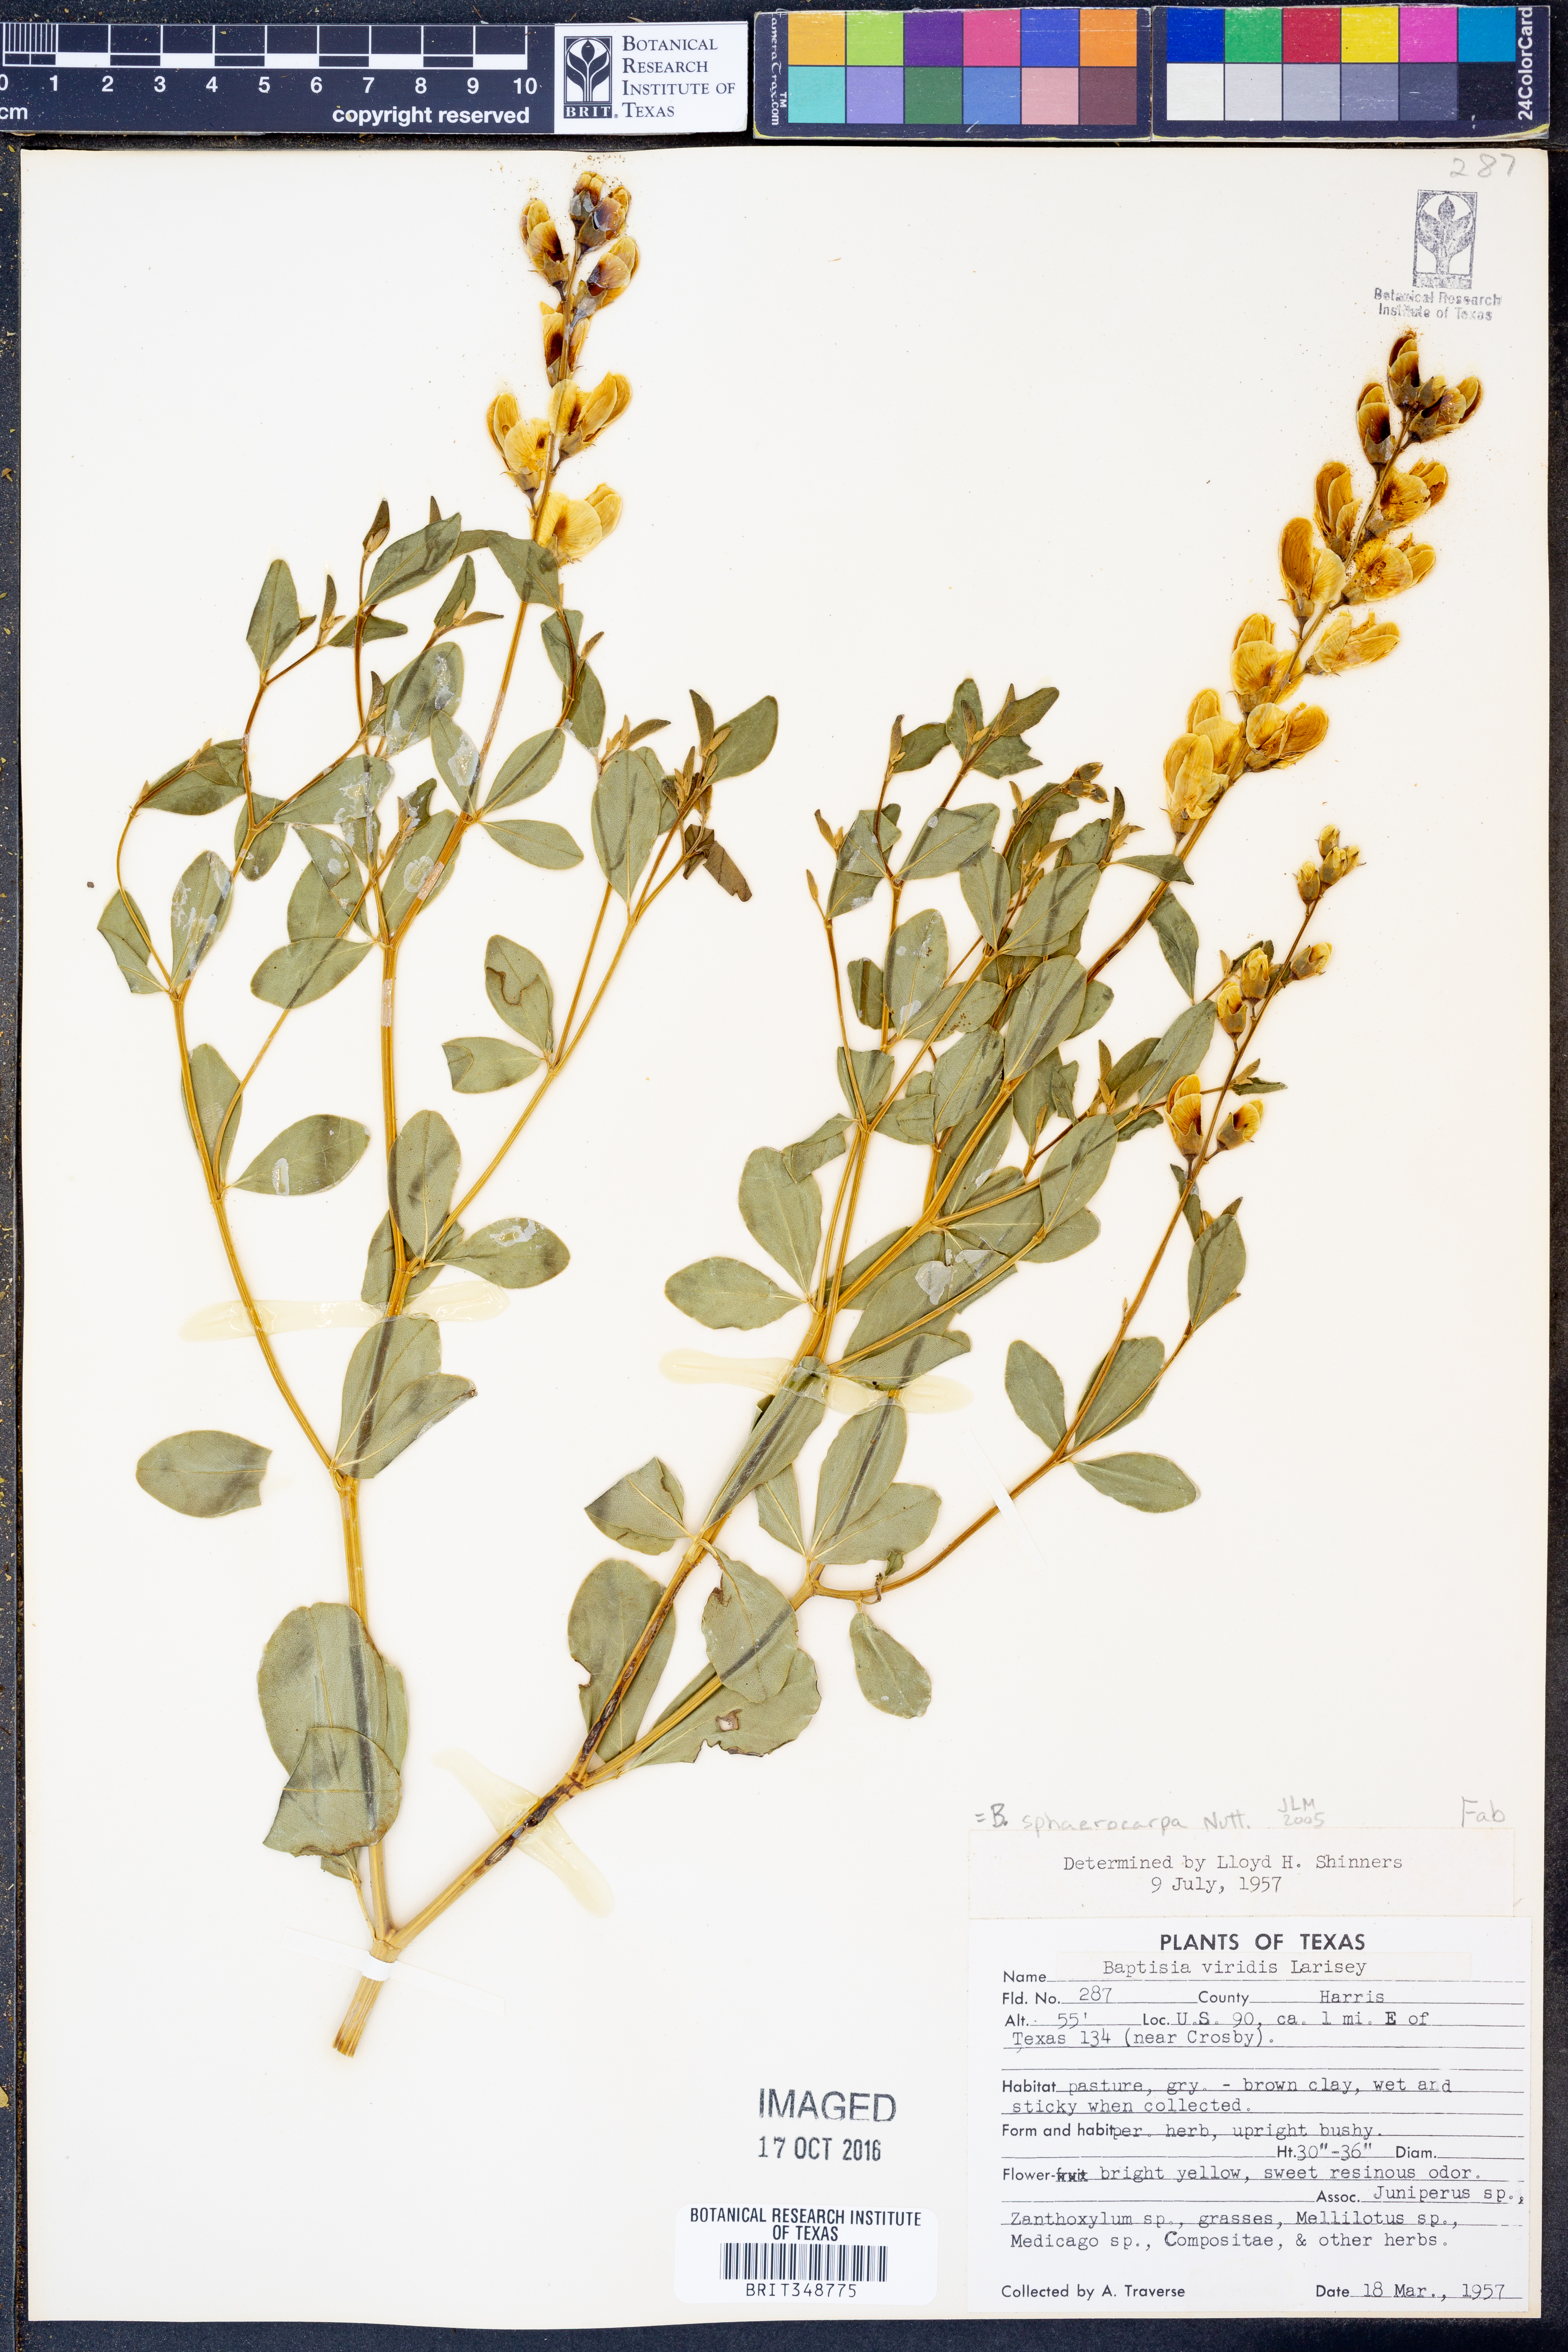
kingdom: Plantae
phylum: Tracheophyta
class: Magnoliopsida
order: Fabales
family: Fabaceae
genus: Baptisia
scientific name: Baptisia sphaerocarpa
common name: Round wild indigo
